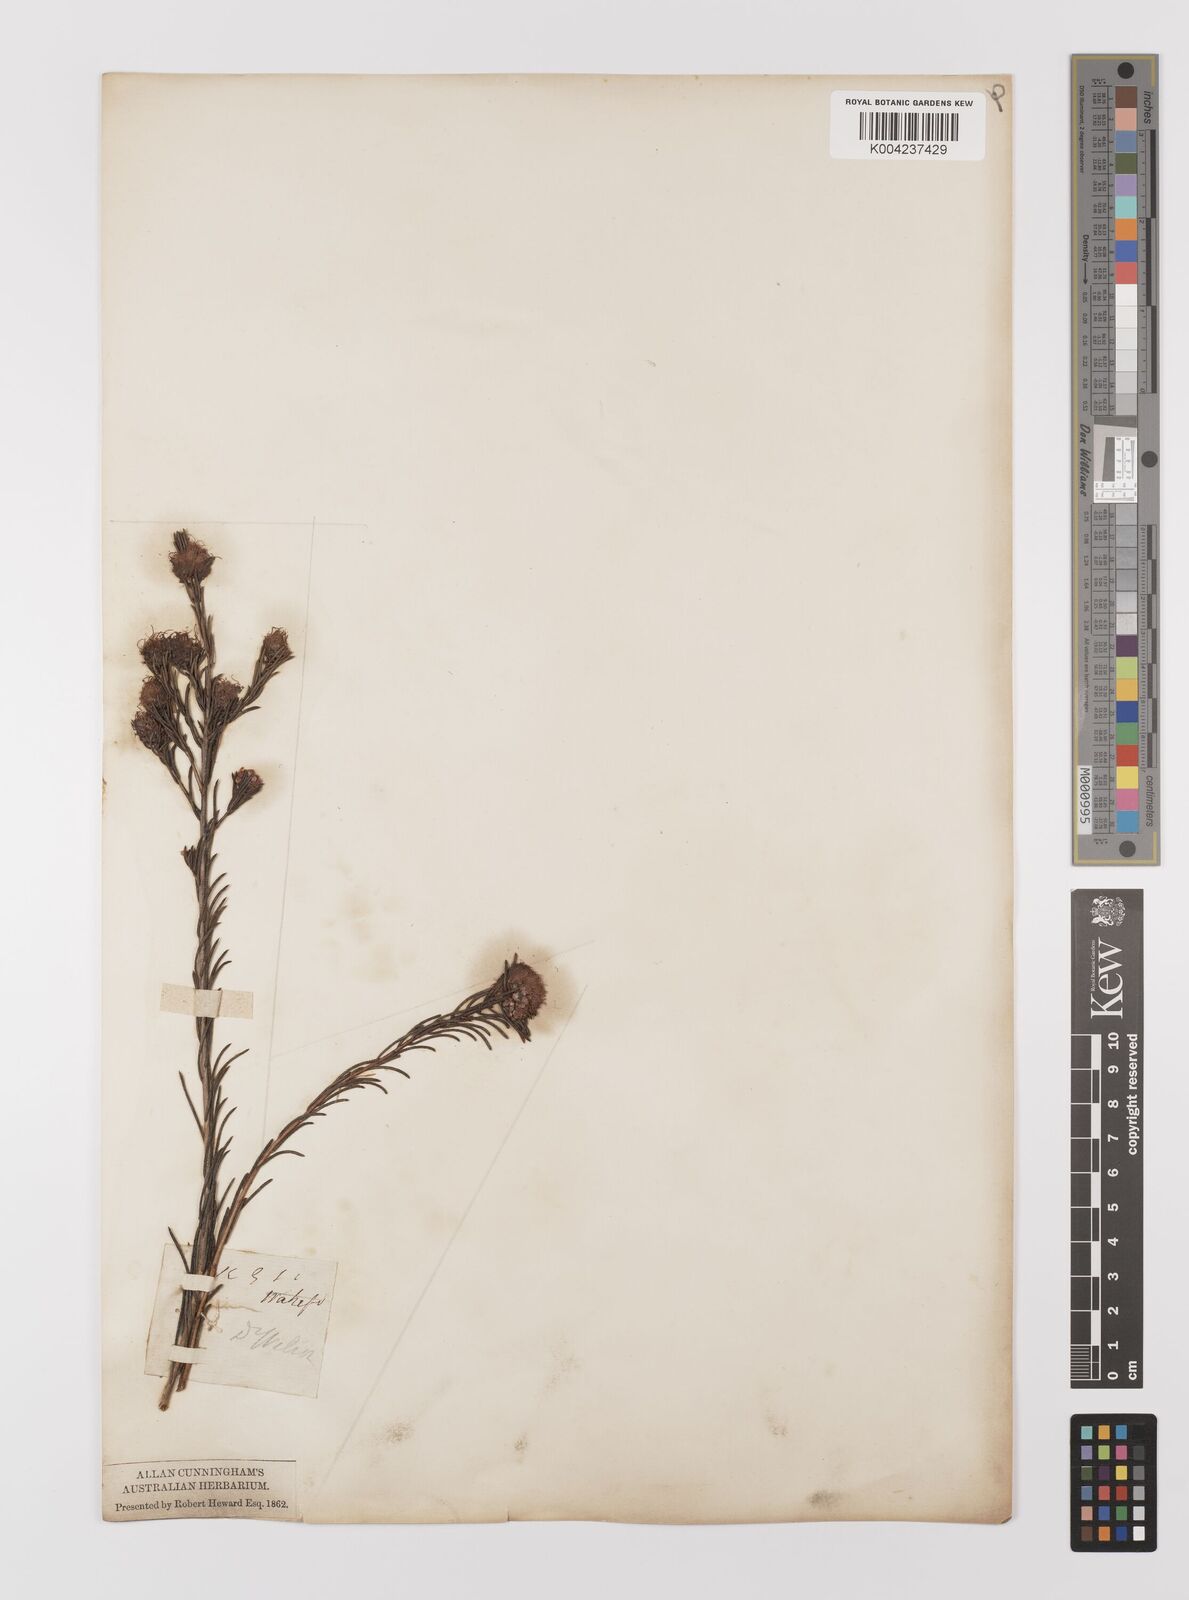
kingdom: Plantae
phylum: Tracheophyta
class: Magnoliopsida
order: Myrtales
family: Myrtaceae
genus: Melaleuca
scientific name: Melaleuca
